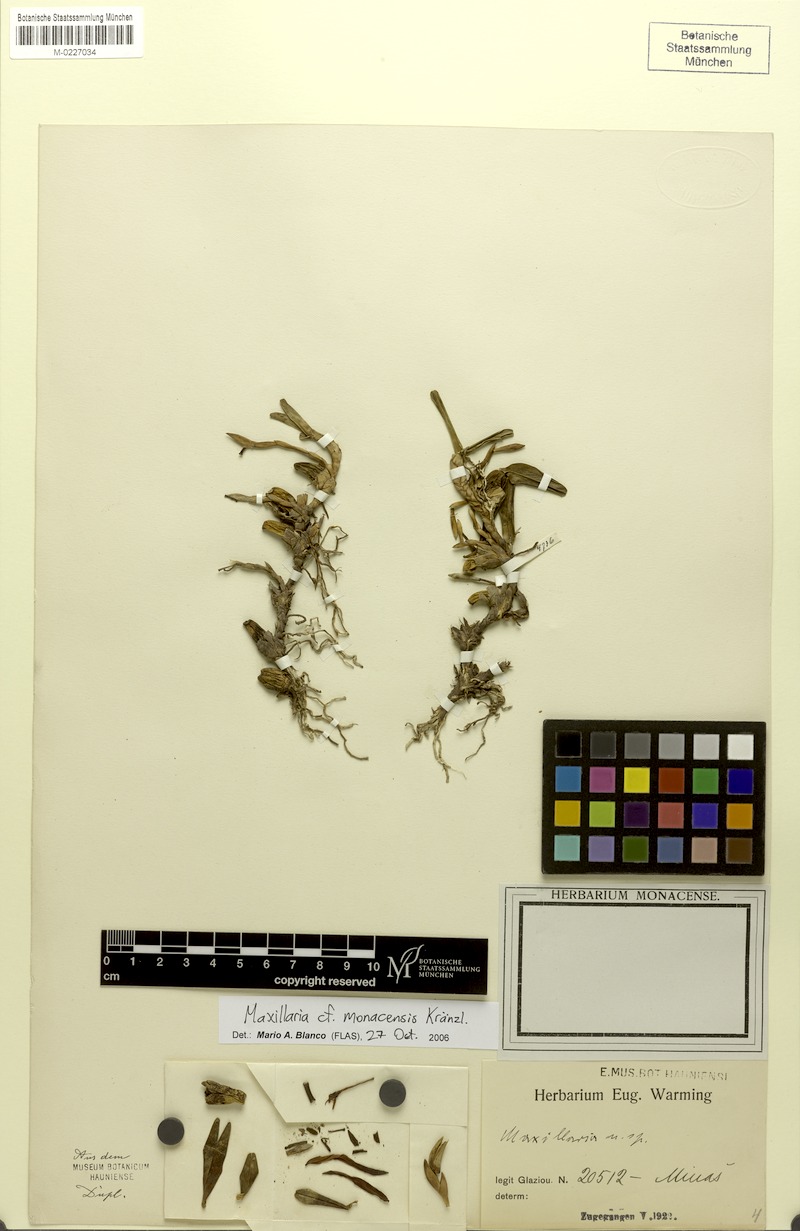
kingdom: Plantae
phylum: Tracheophyta
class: Liliopsida
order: Asparagales
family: Orchidaceae
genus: Maxillaria
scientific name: Maxillaria monacensis
